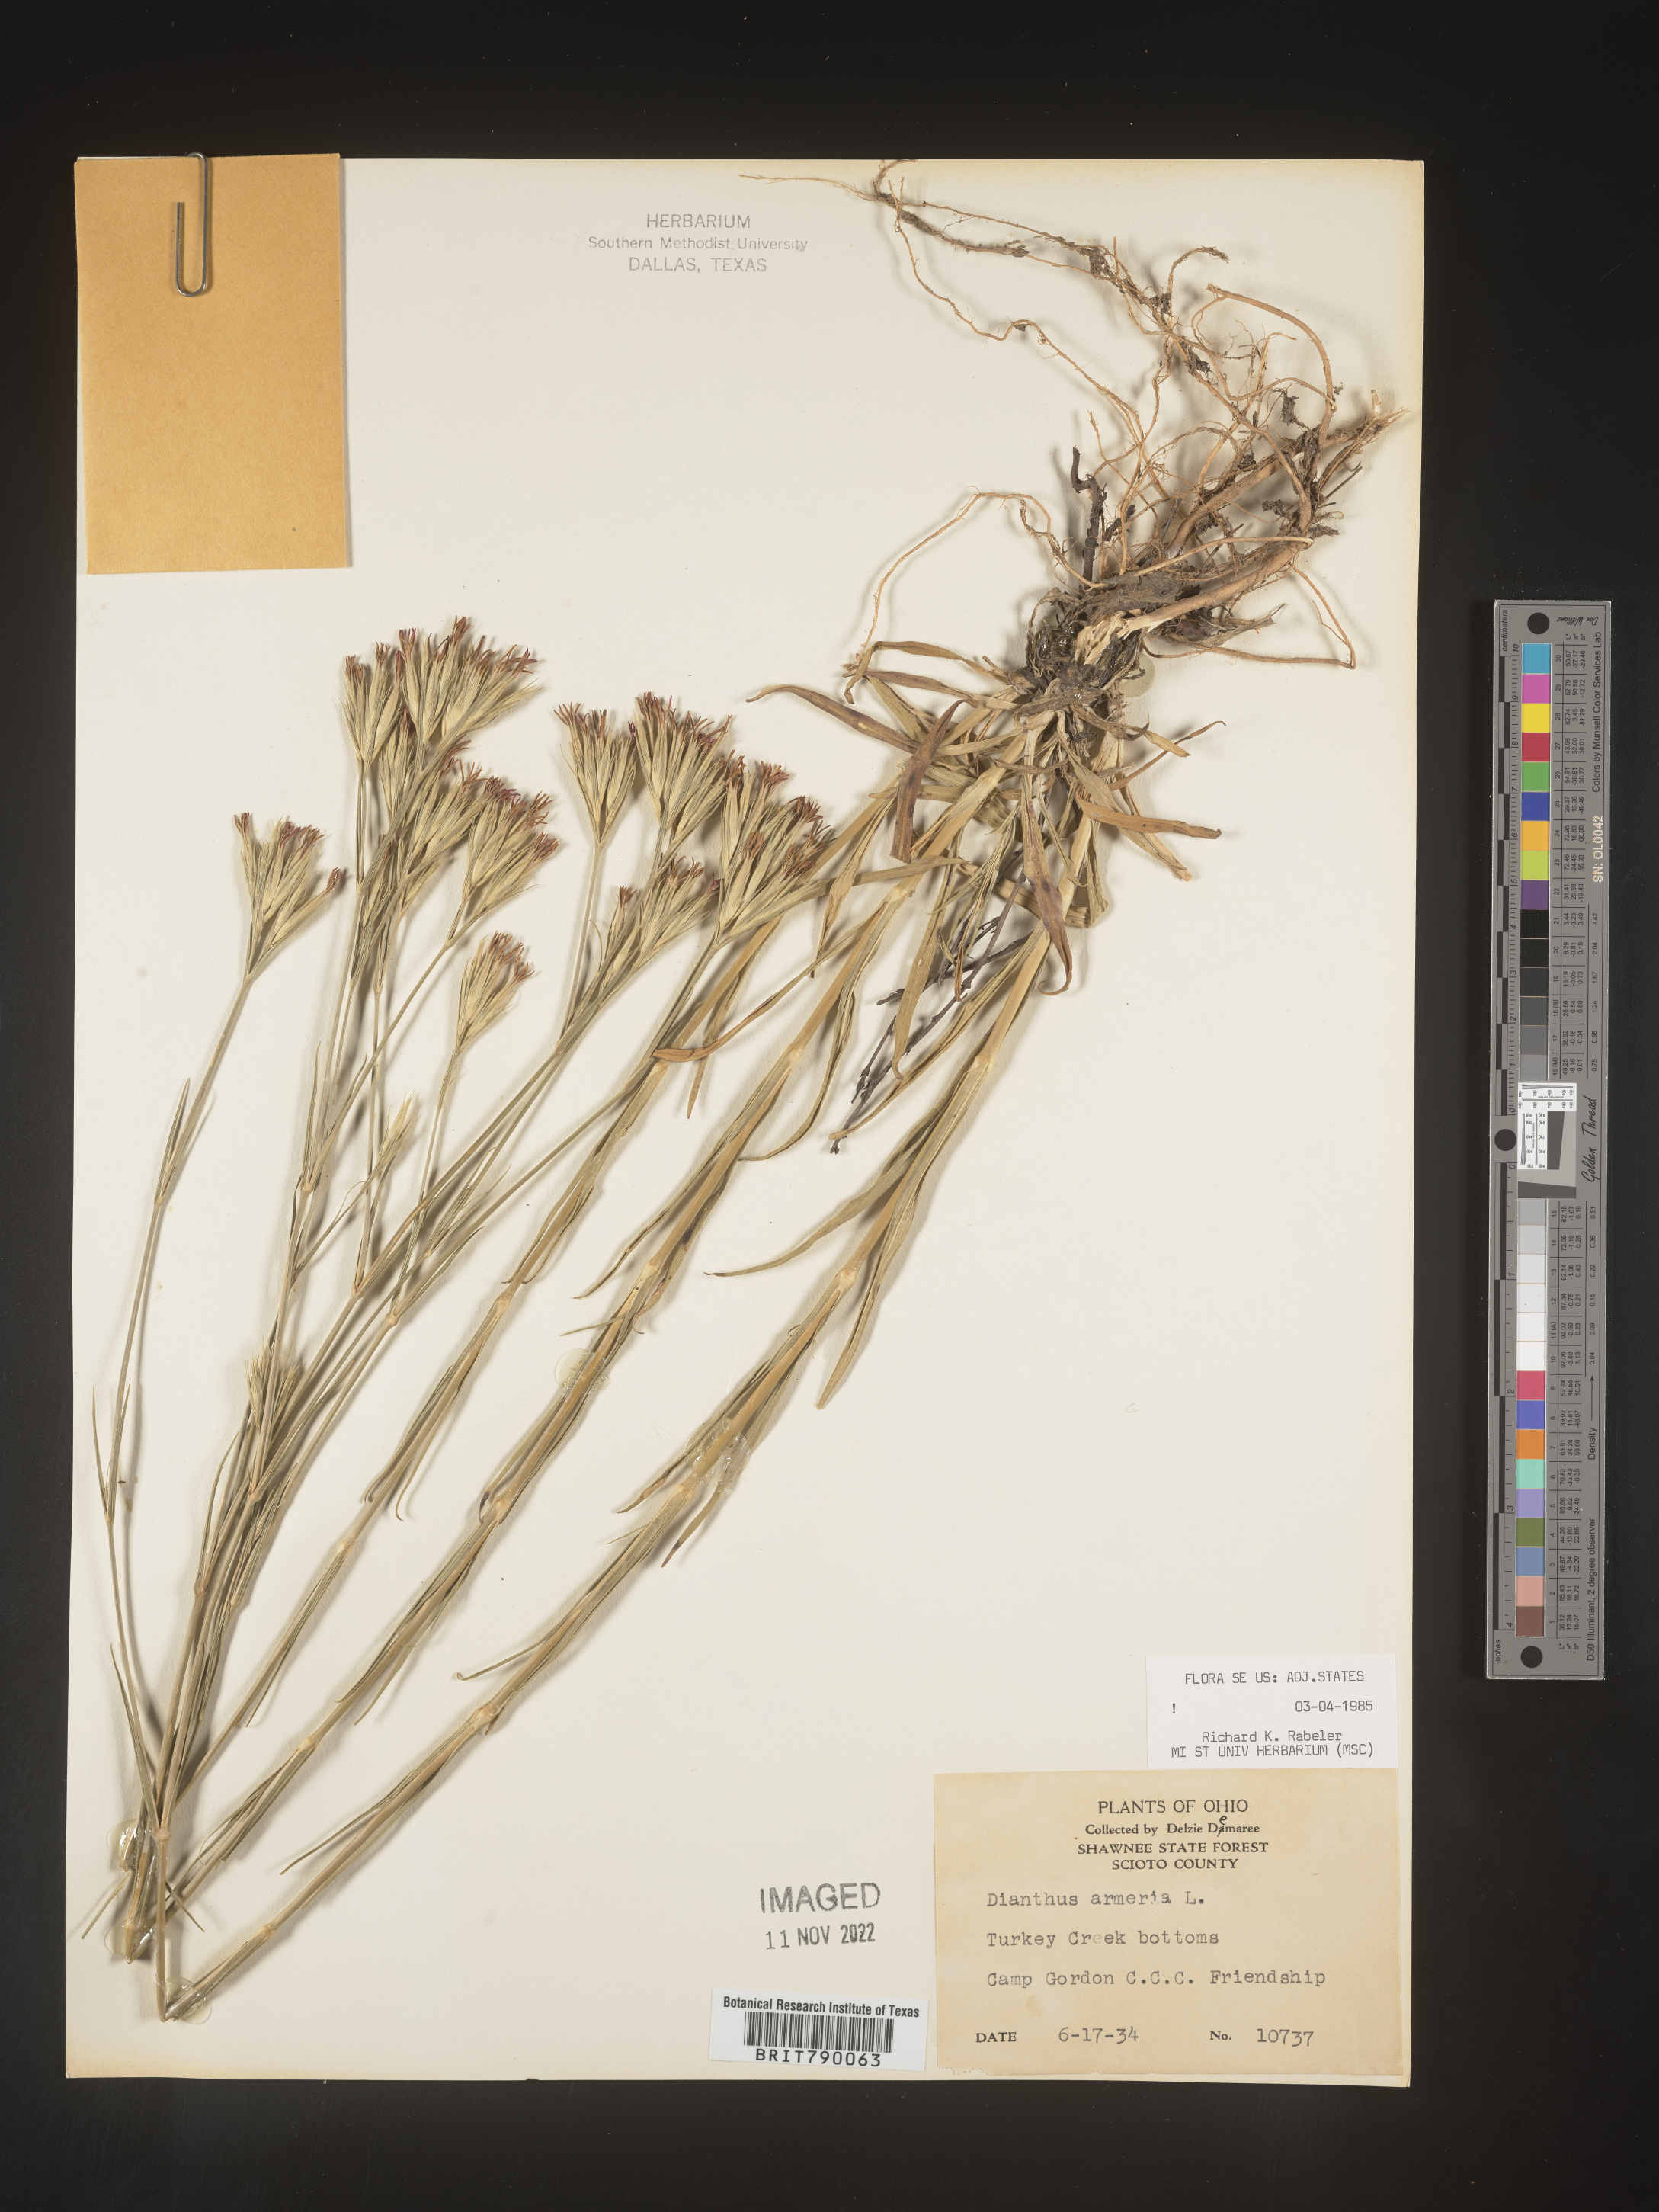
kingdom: Plantae
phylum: Tracheophyta
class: Magnoliopsida
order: Caryophyllales
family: Caryophyllaceae
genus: Dianthus
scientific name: Dianthus armeria
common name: Deptford pink
